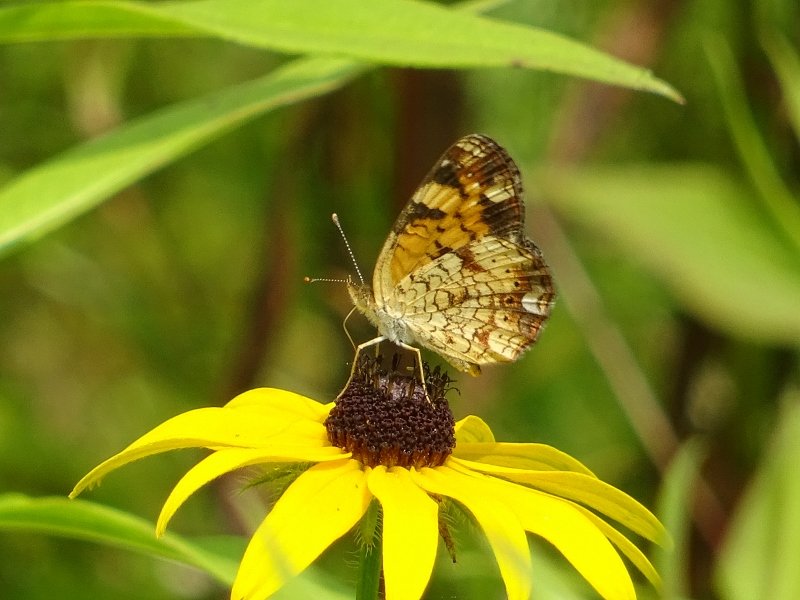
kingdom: Animalia
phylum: Arthropoda
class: Insecta
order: Lepidoptera
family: Nymphalidae
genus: Phyciodes
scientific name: Phyciodes tharos
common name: Northern Crescent
